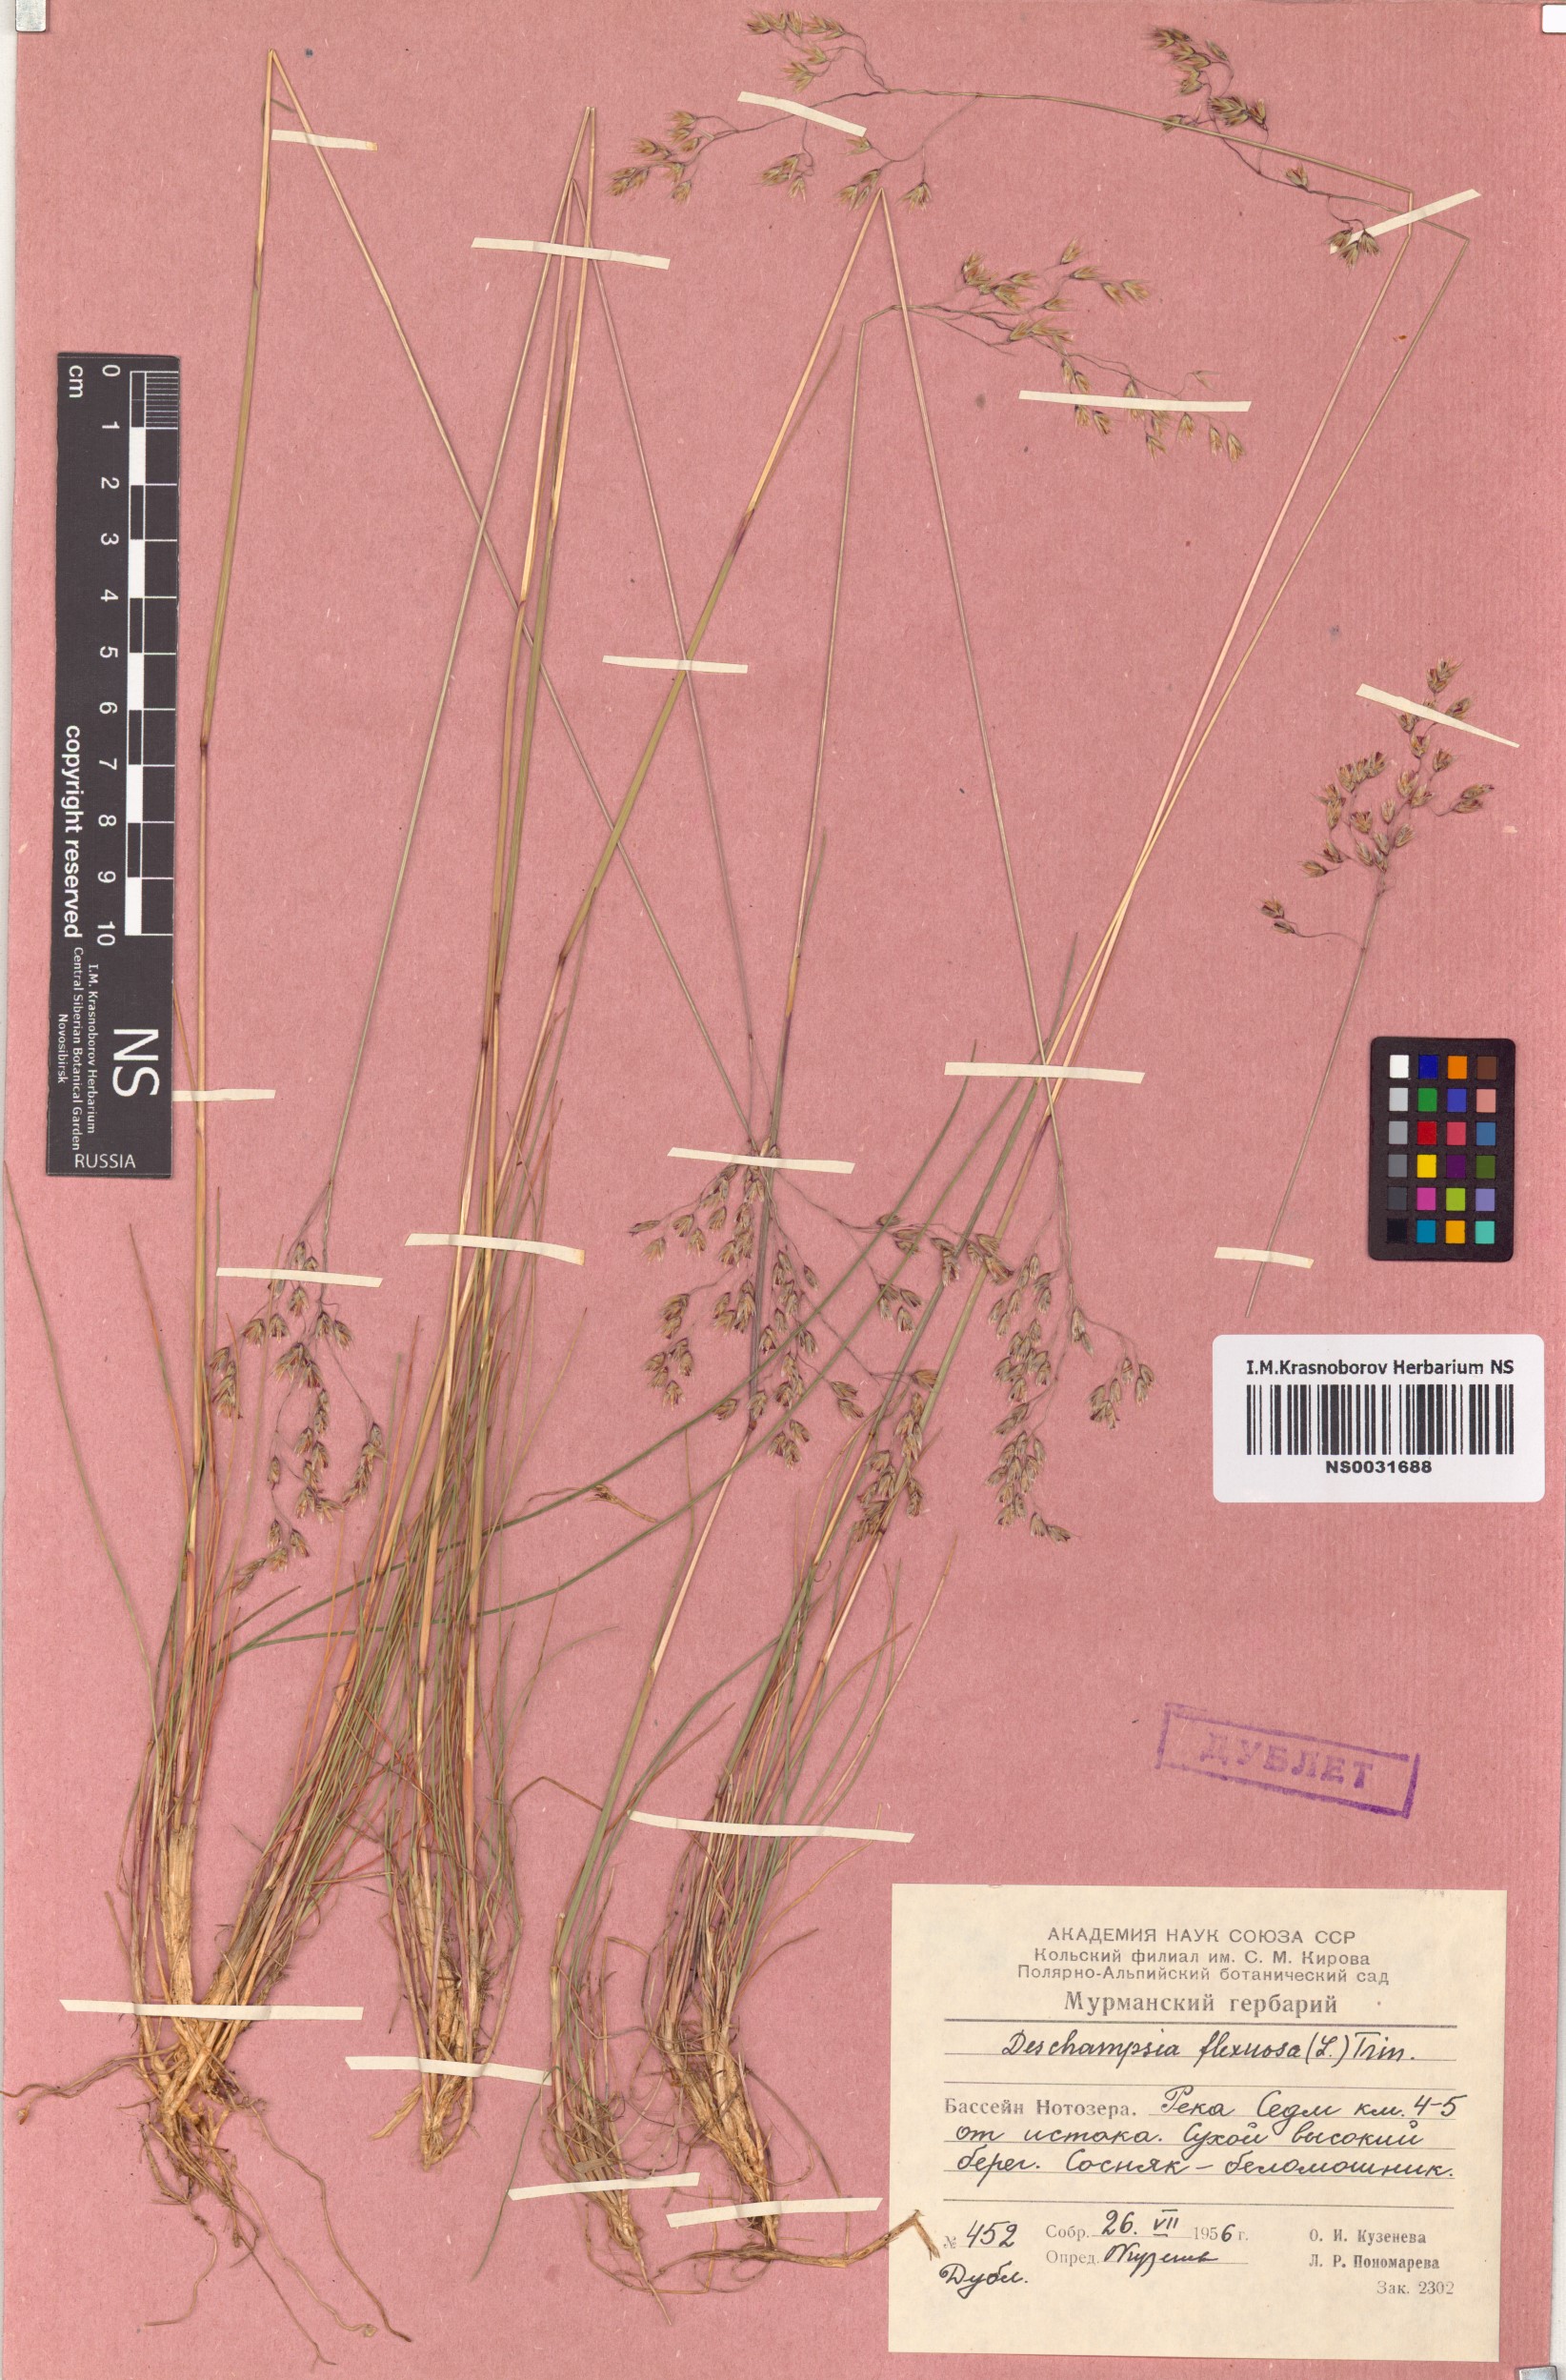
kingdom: Plantae
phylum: Tracheophyta
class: Liliopsida
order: Poales
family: Poaceae
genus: Avenella
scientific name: Avenella flexuosa
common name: Wavy hairgrass
